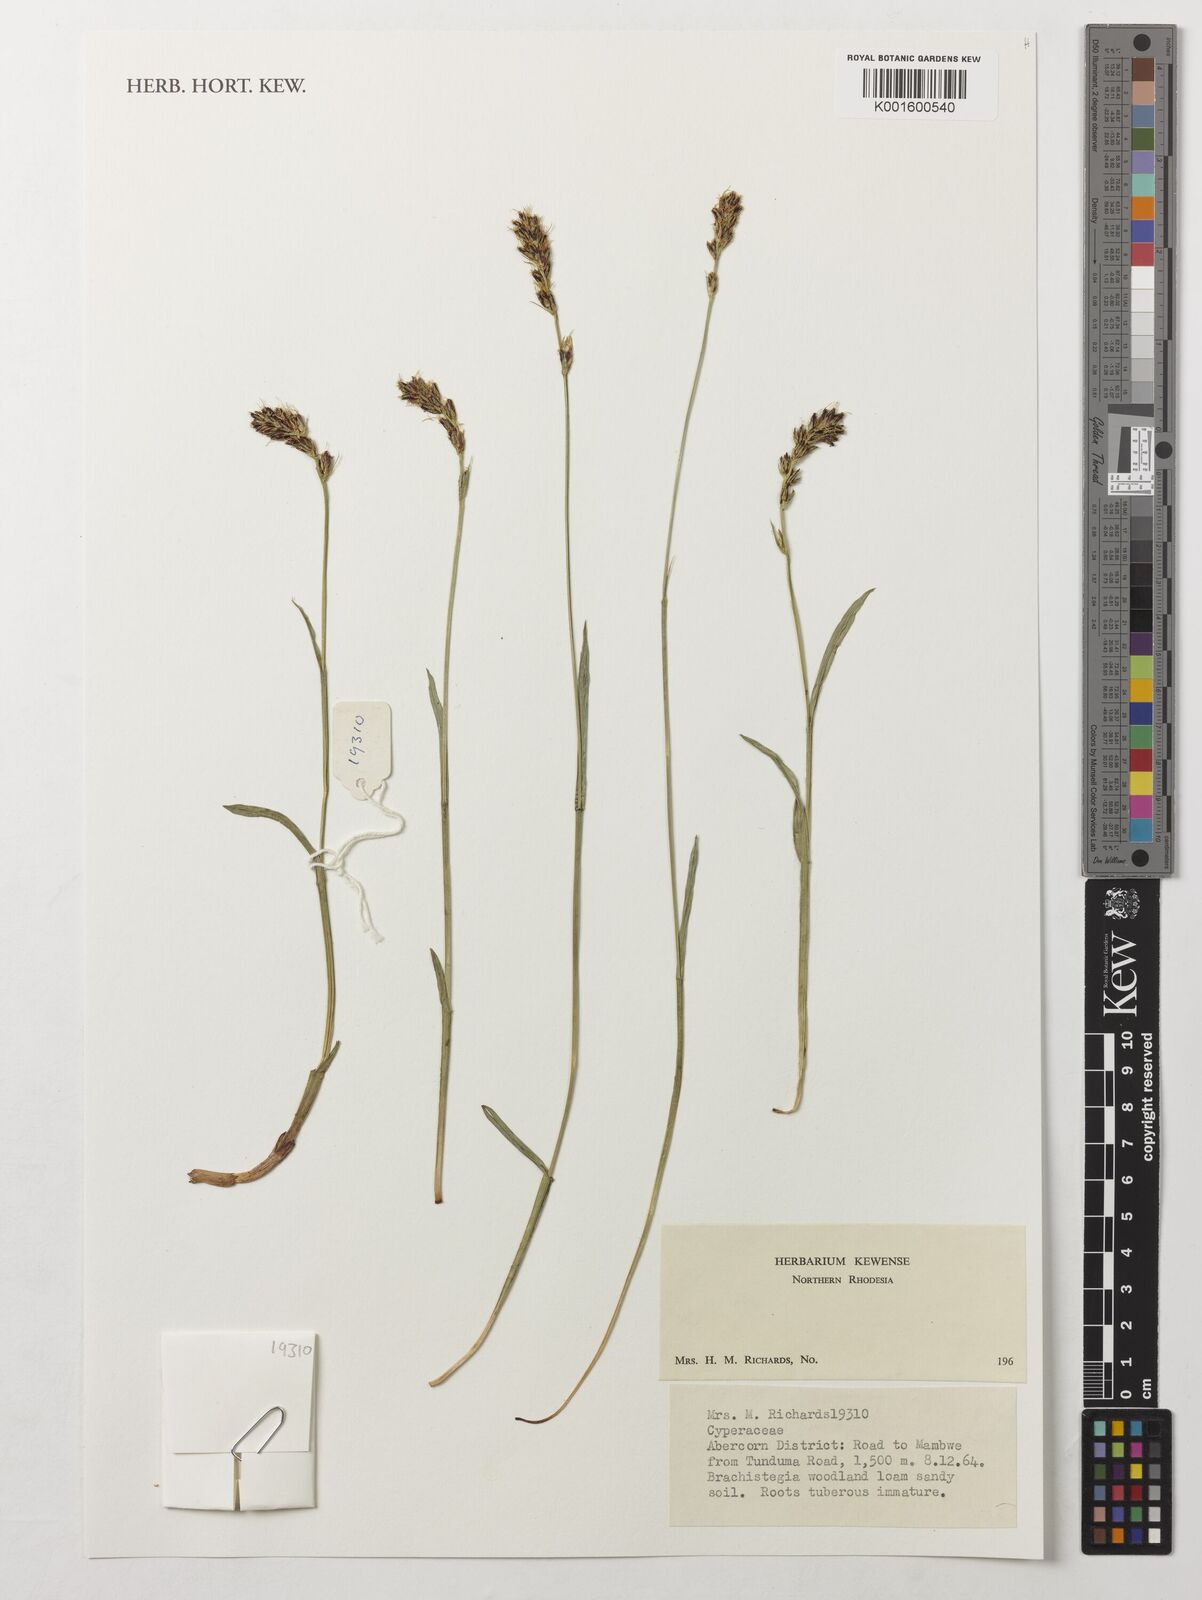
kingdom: Plantae
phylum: Tracheophyta
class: Liliopsida
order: Poales
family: Cyperaceae
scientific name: Cyperaceae
